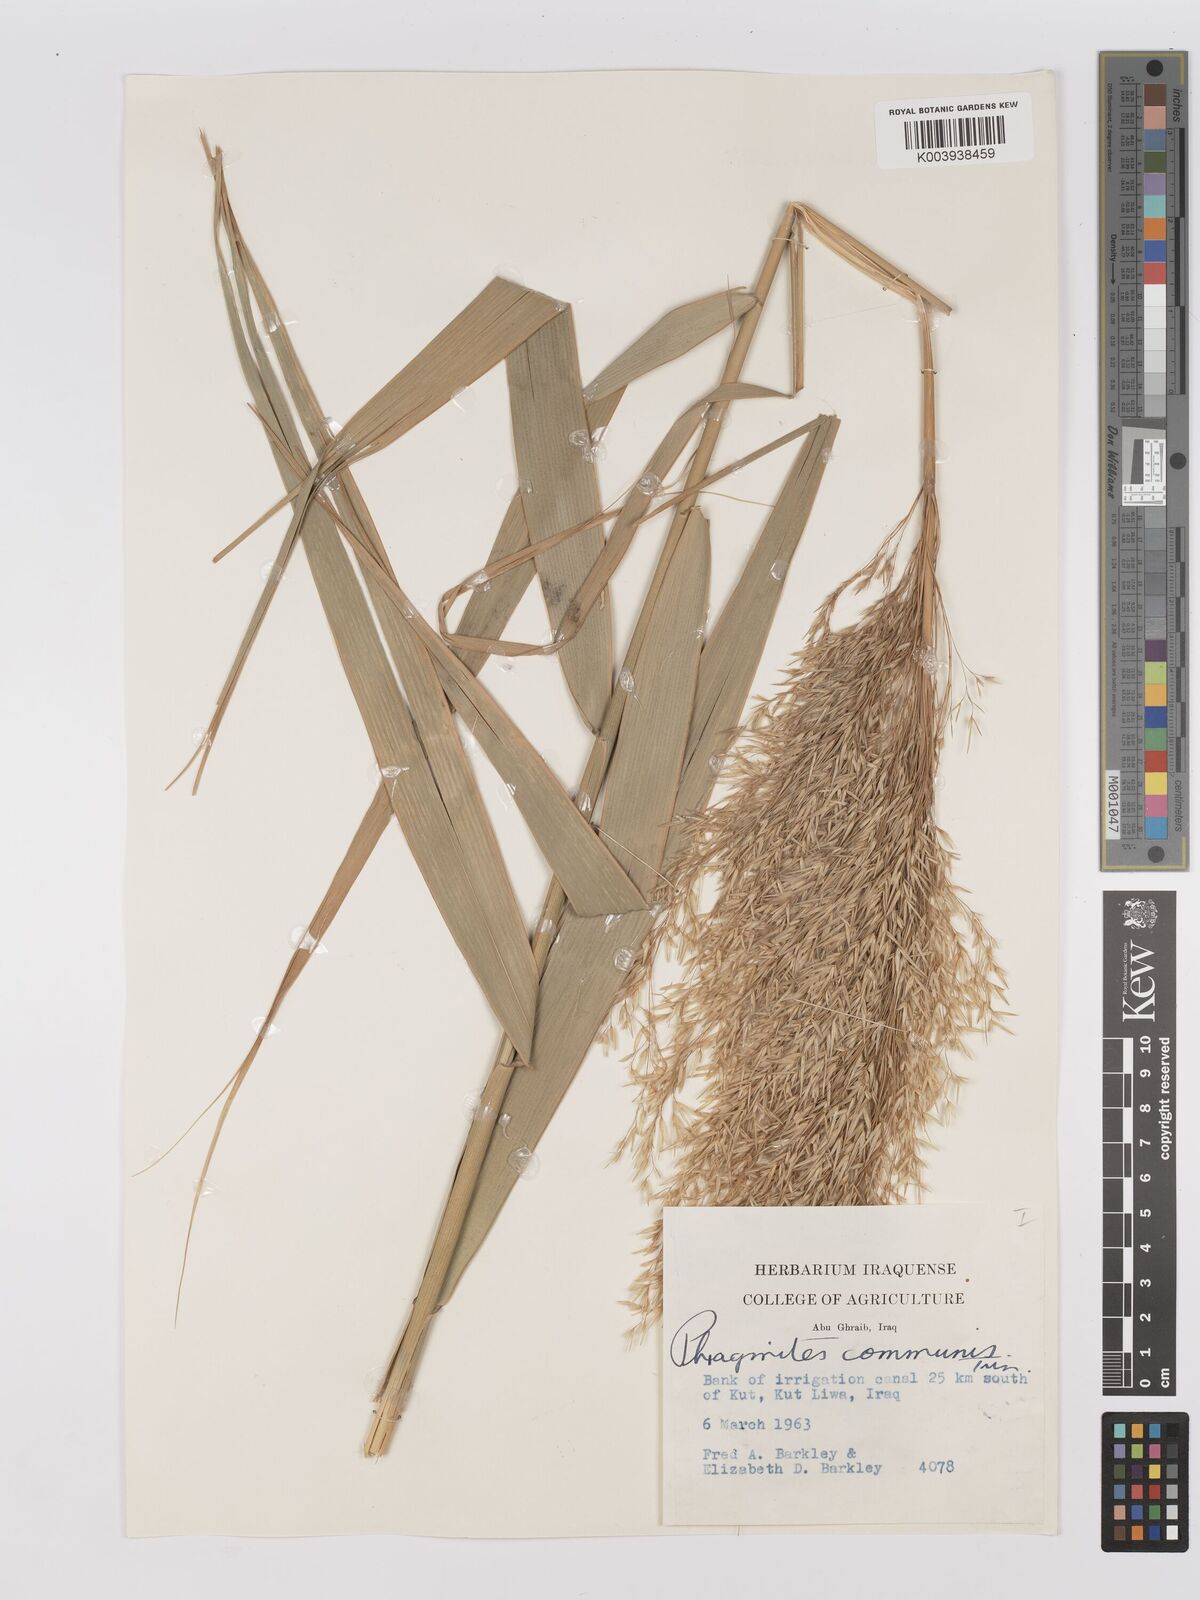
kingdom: Plantae
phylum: Tracheophyta
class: Liliopsida
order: Poales
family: Poaceae
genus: Phragmites
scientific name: Phragmites australis
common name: Common reed
